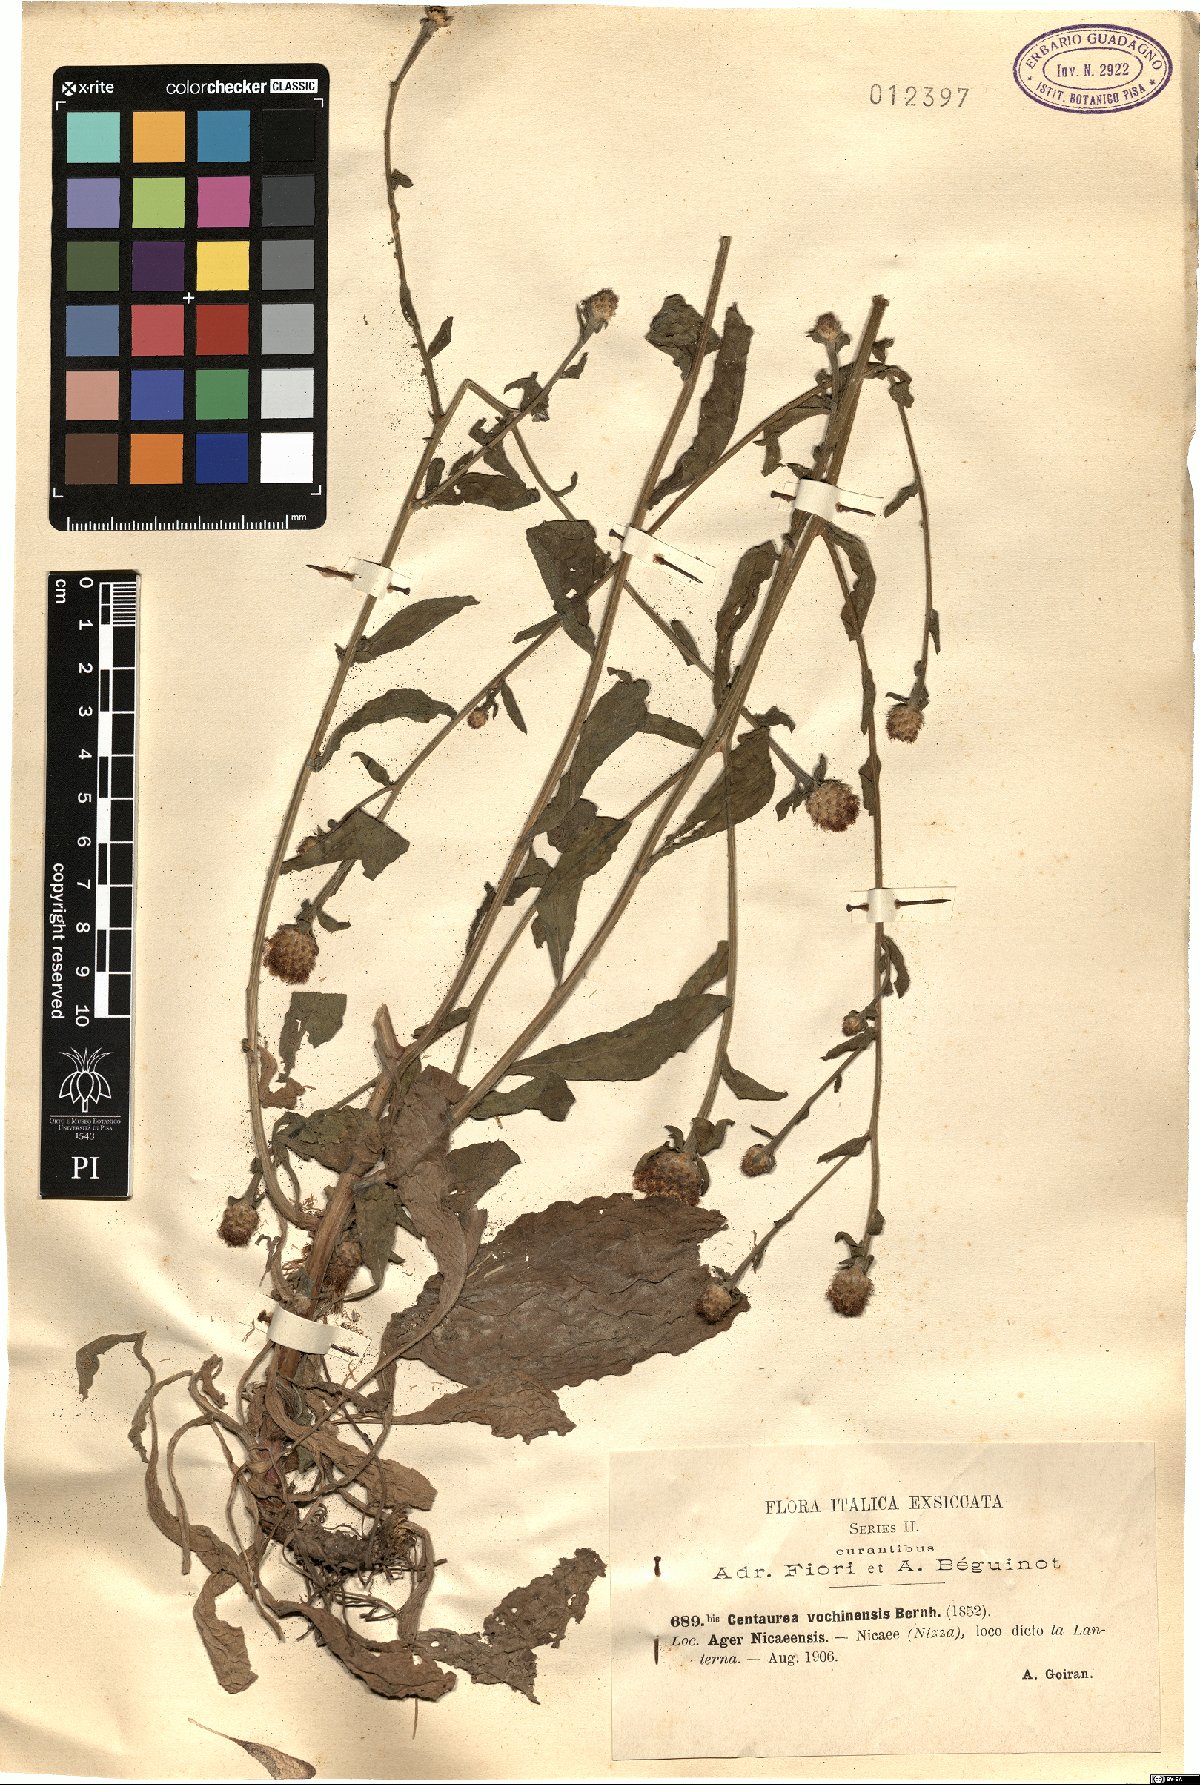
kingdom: Plantae
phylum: Tracheophyta
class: Magnoliopsida
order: Asterales
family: Asteraceae
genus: Centaurea
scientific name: Centaurea carniolica
